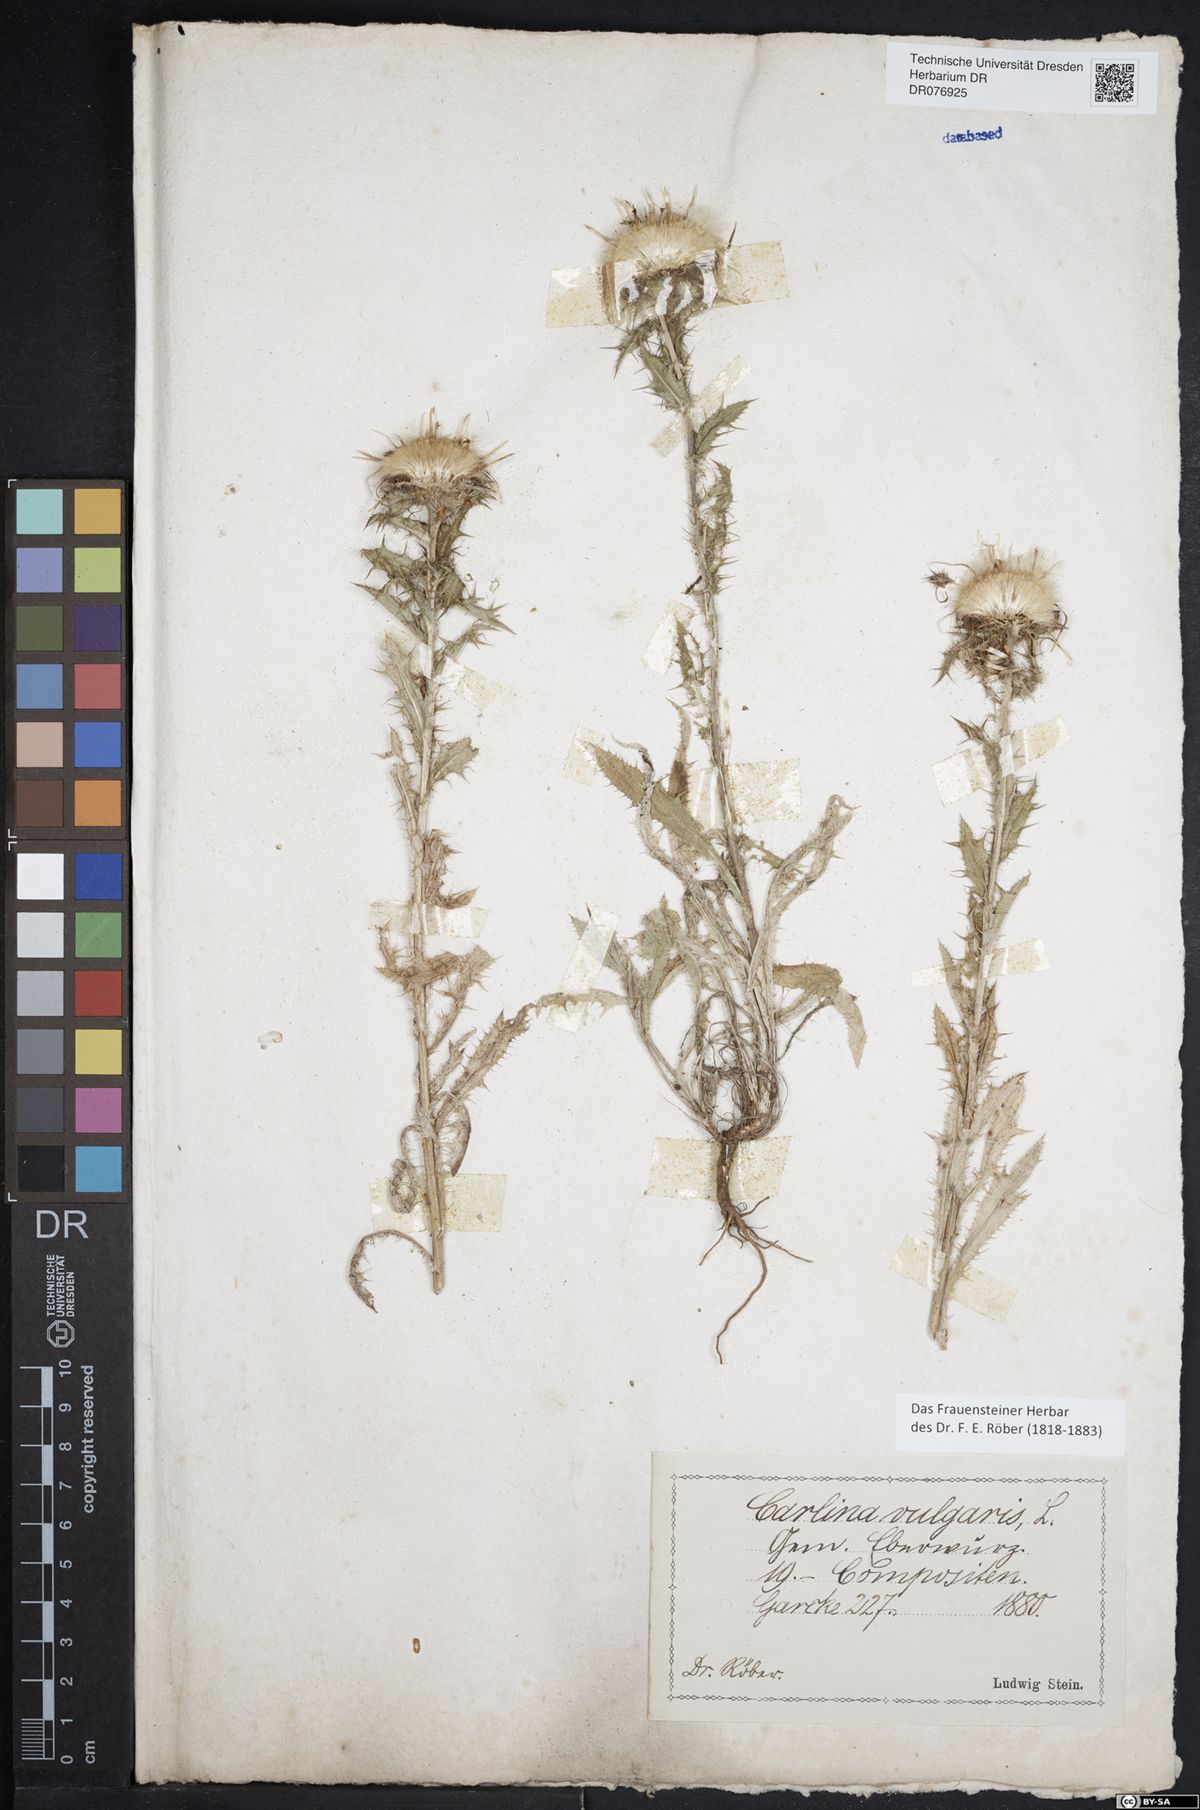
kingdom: Plantae
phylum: Tracheophyta
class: Magnoliopsida
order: Asterales
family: Asteraceae
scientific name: Asteraceae
